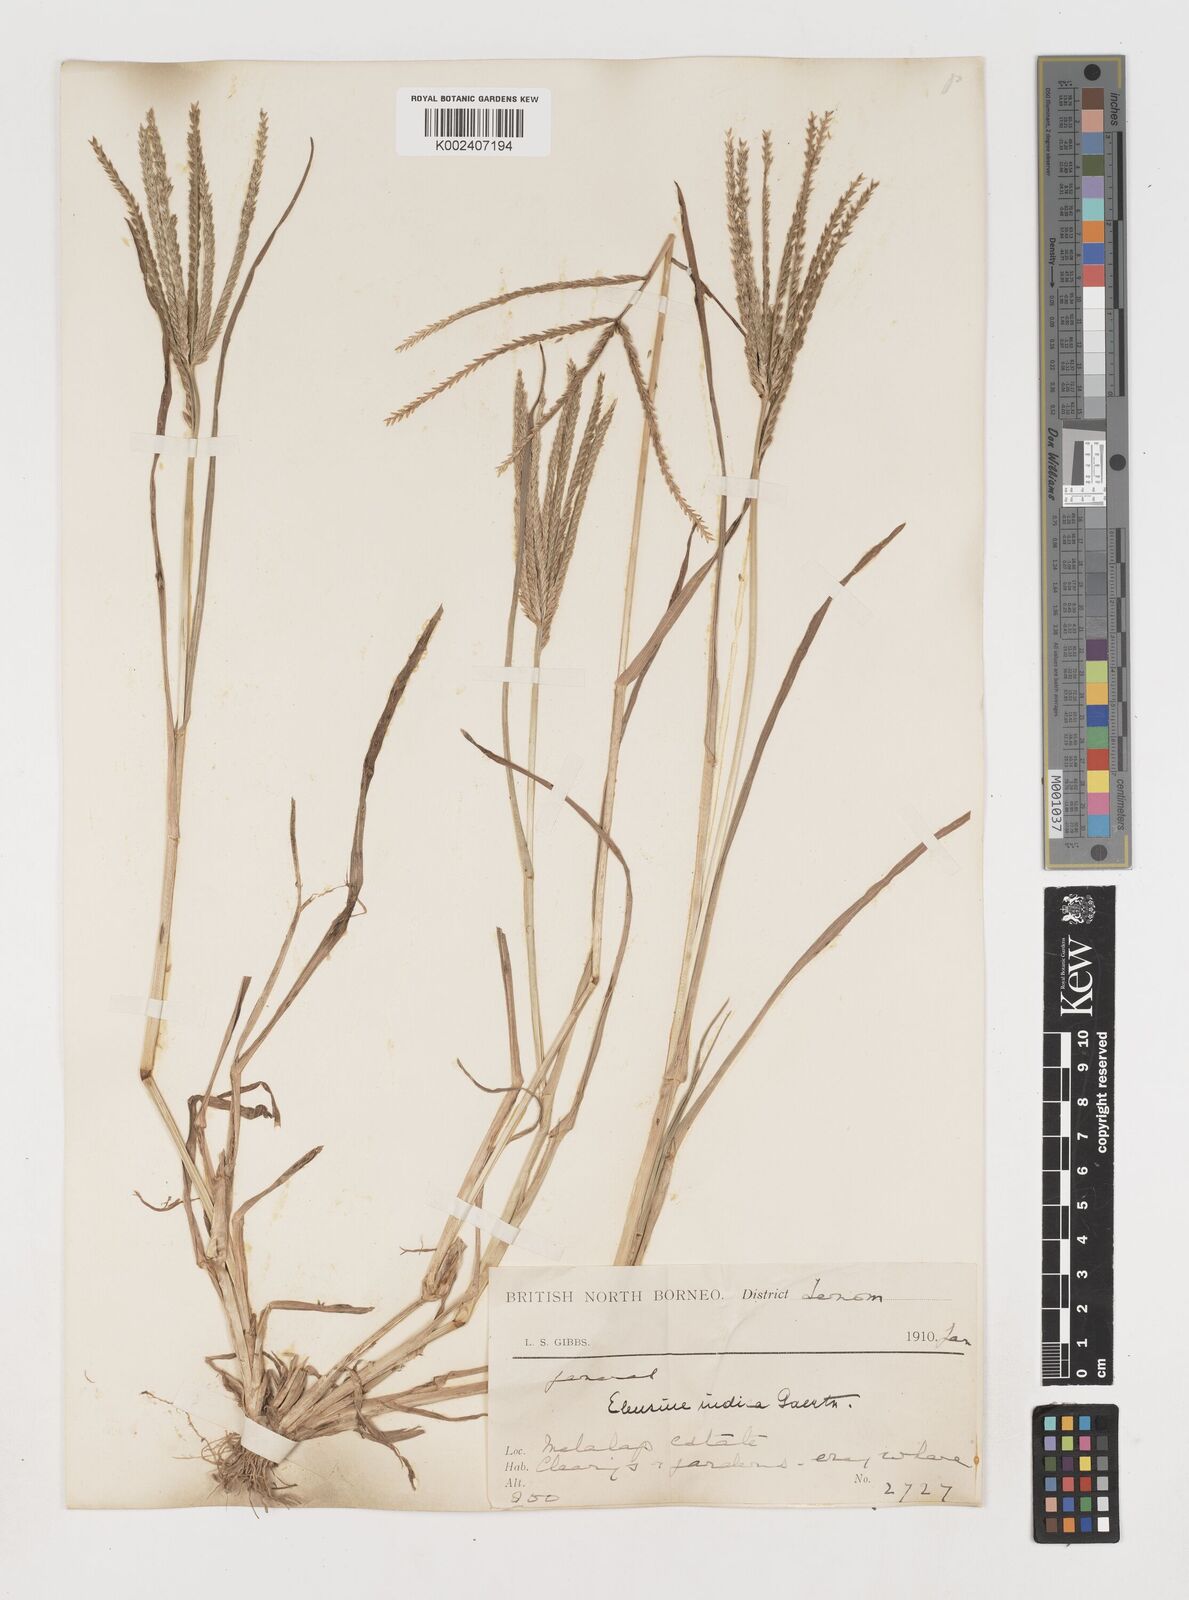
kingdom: Plantae
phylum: Tracheophyta
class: Liliopsida
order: Poales
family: Poaceae
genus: Eleusine
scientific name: Eleusine indica
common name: Yard-grass
